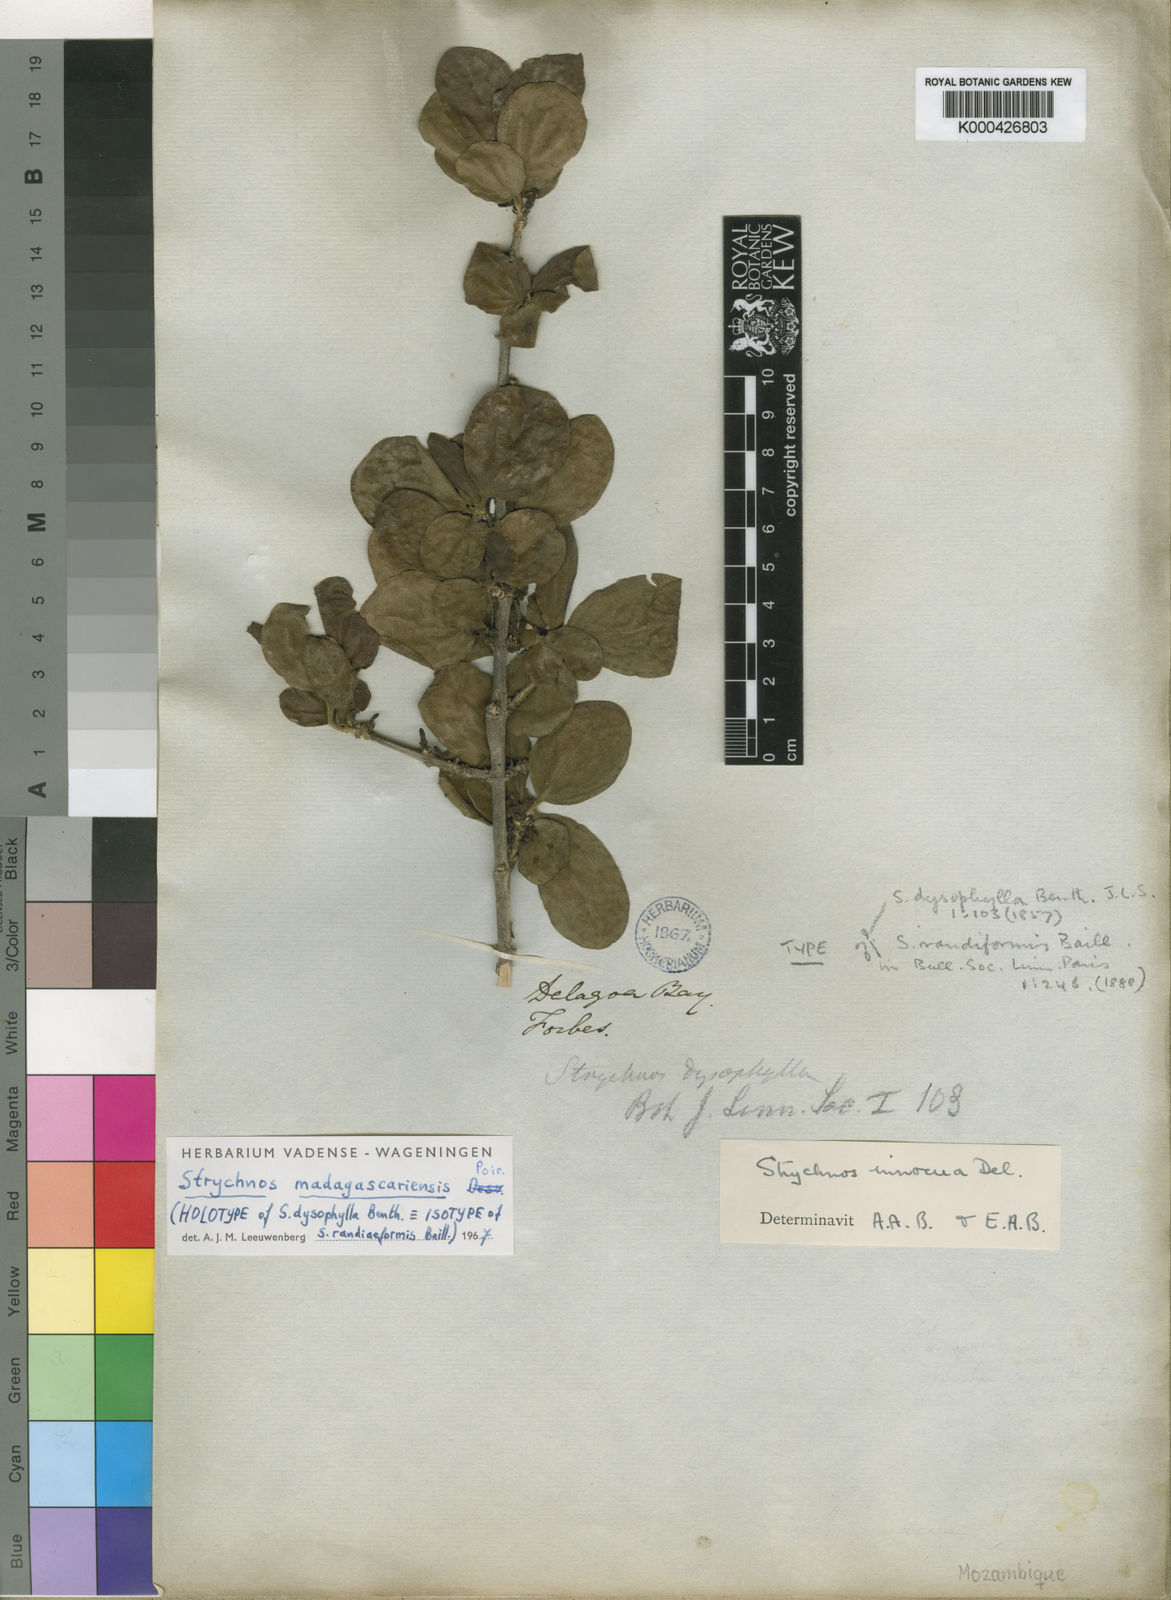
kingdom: Plantae
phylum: Tracheophyta
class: Magnoliopsida
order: Gentianales
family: Loganiaceae
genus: Strychnos
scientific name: Strychnos madagascariensis
